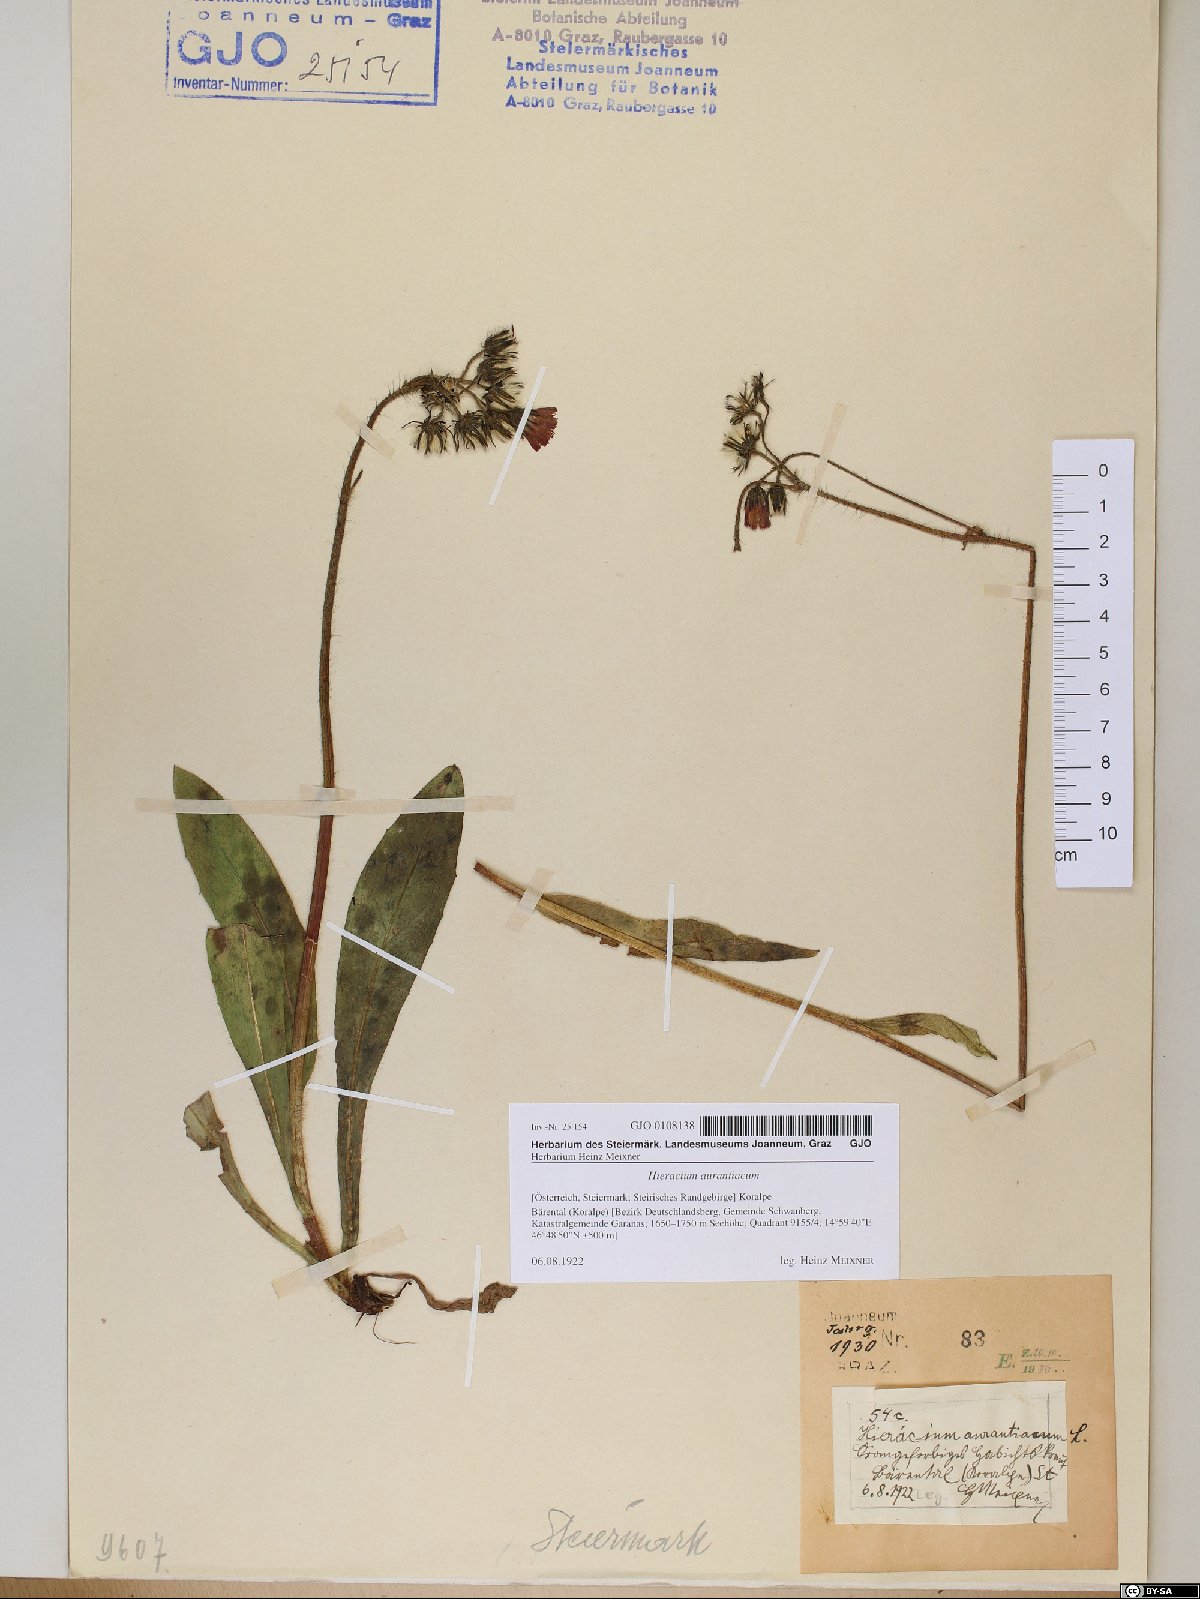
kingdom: Plantae
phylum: Tracheophyta
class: Magnoliopsida
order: Asterales
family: Asteraceae
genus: Pilosella
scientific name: Pilosella aurantiaca
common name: Fox-and-cubs
